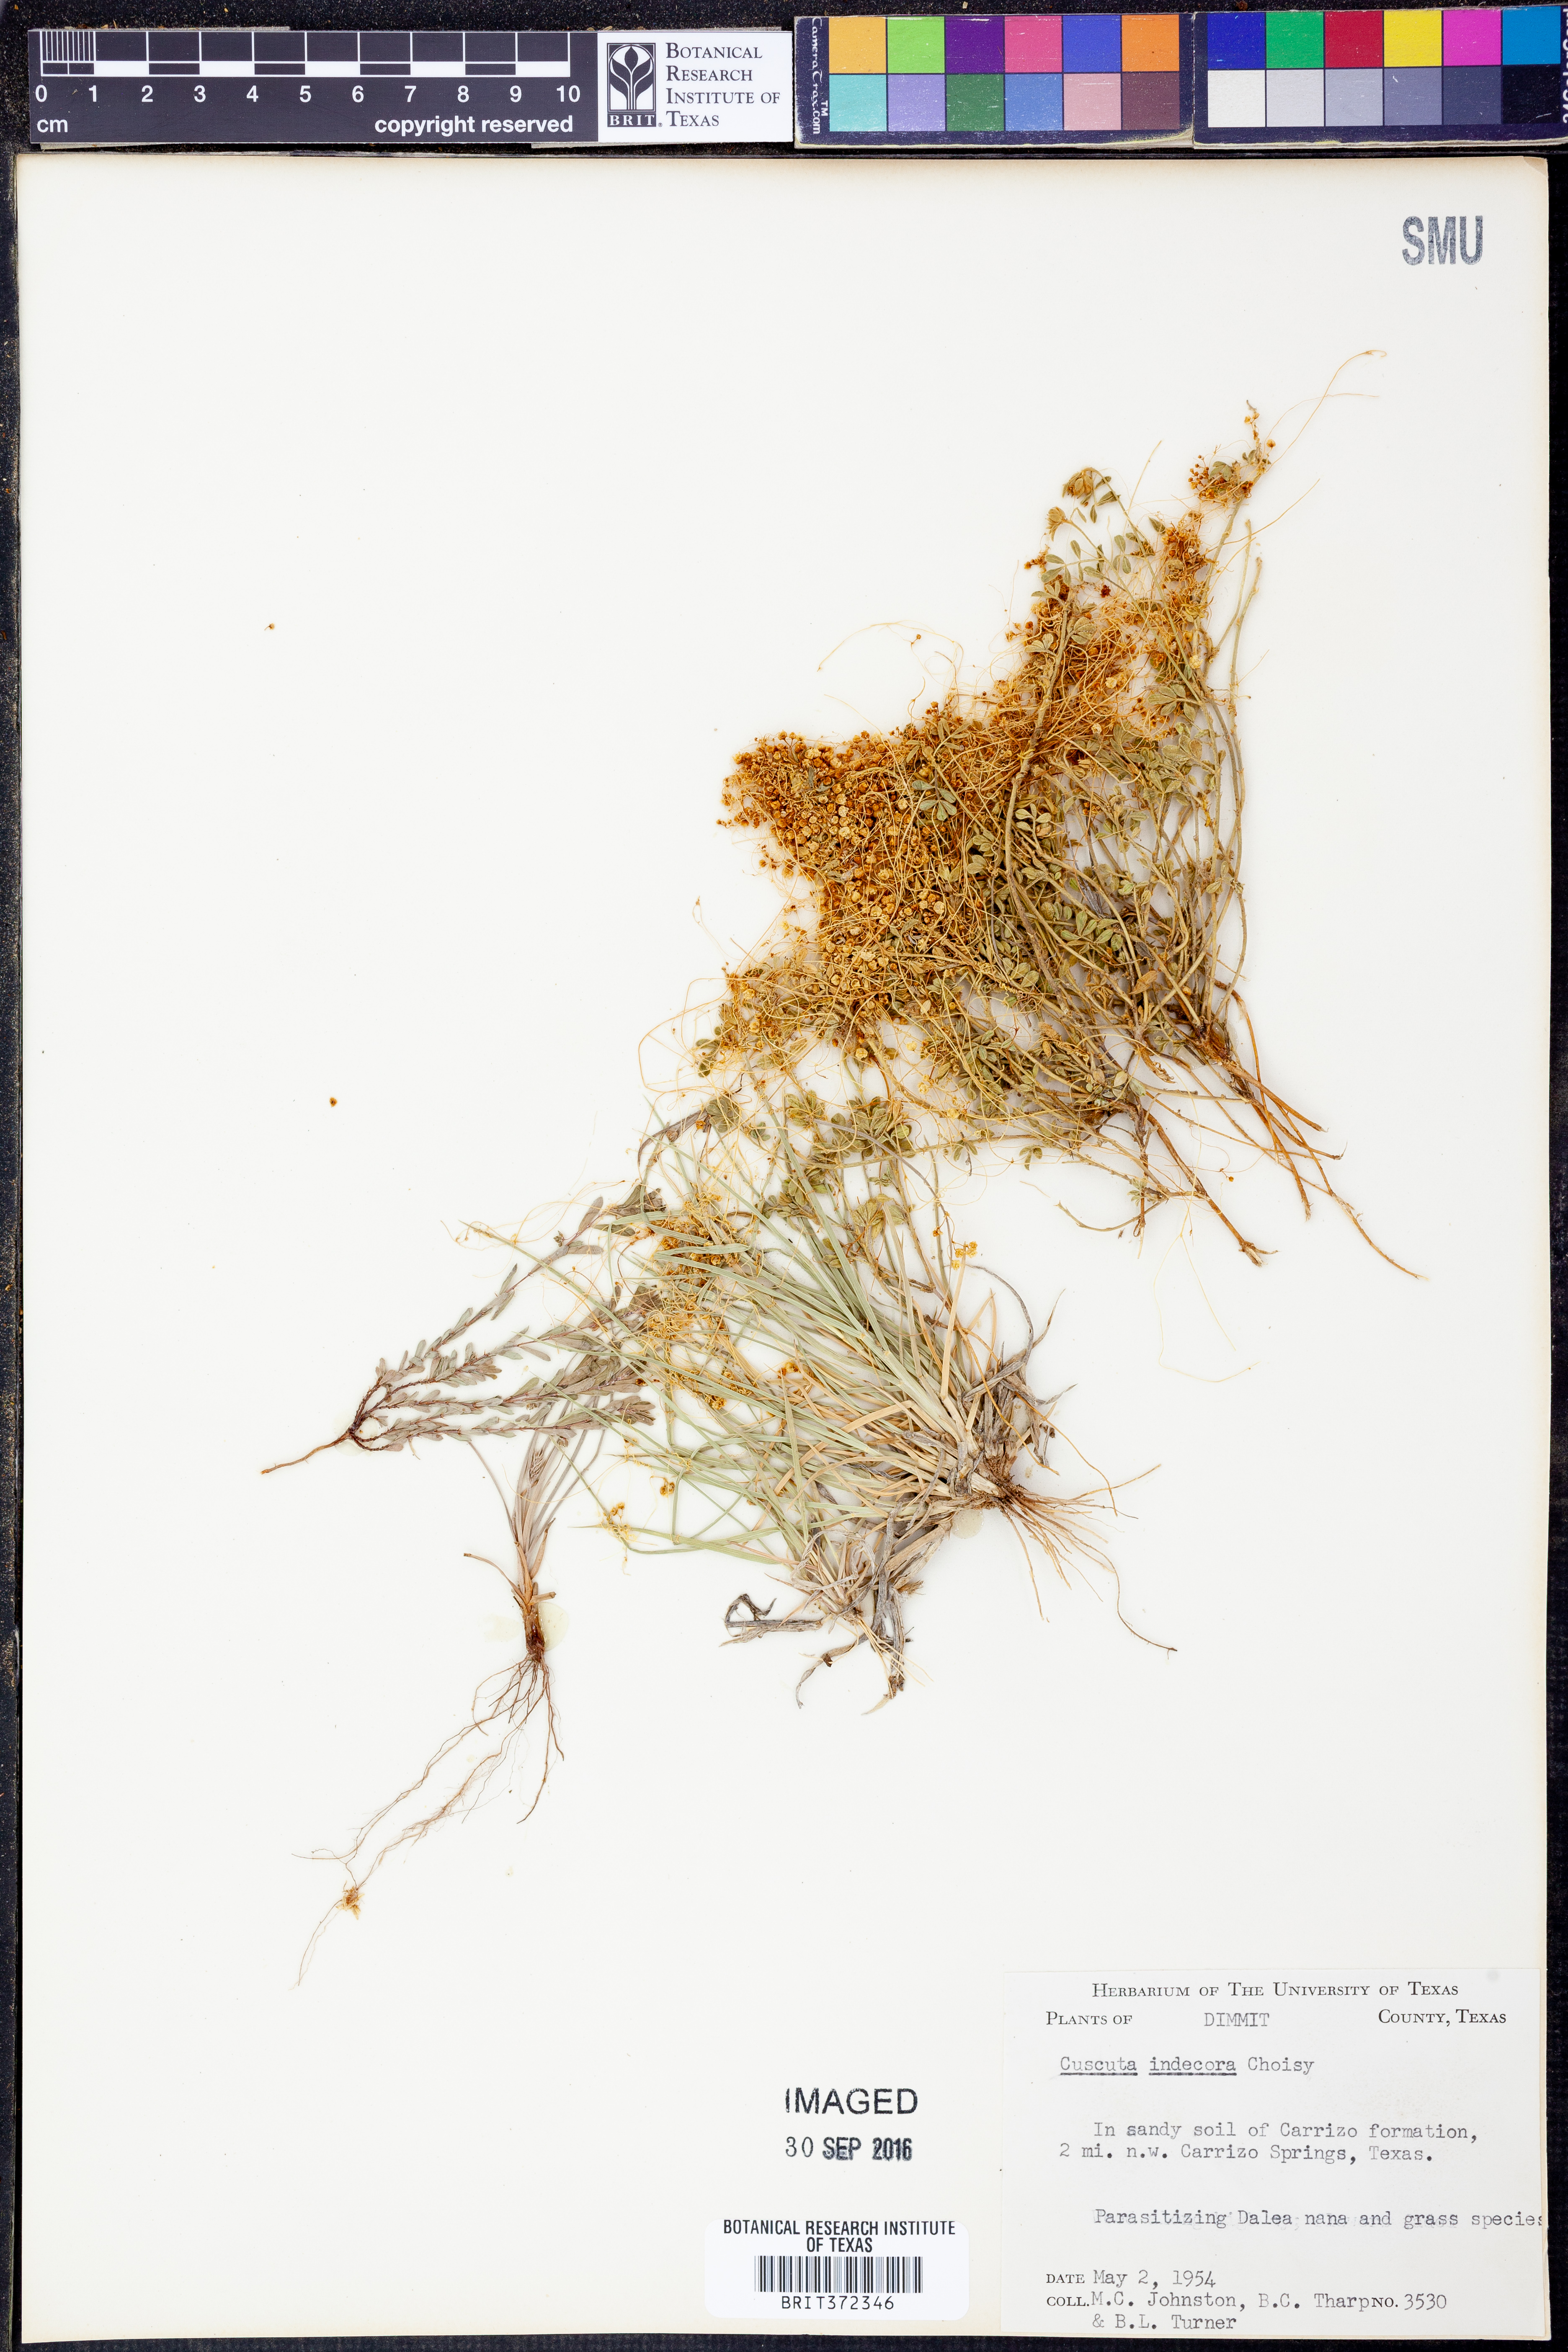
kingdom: Plantae
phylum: Tracheophyta
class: Magnoliopsida
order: Solanales
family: Convolvulaceae
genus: Cuscuta
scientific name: Cuscuta indecora
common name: Large-seed dodder
